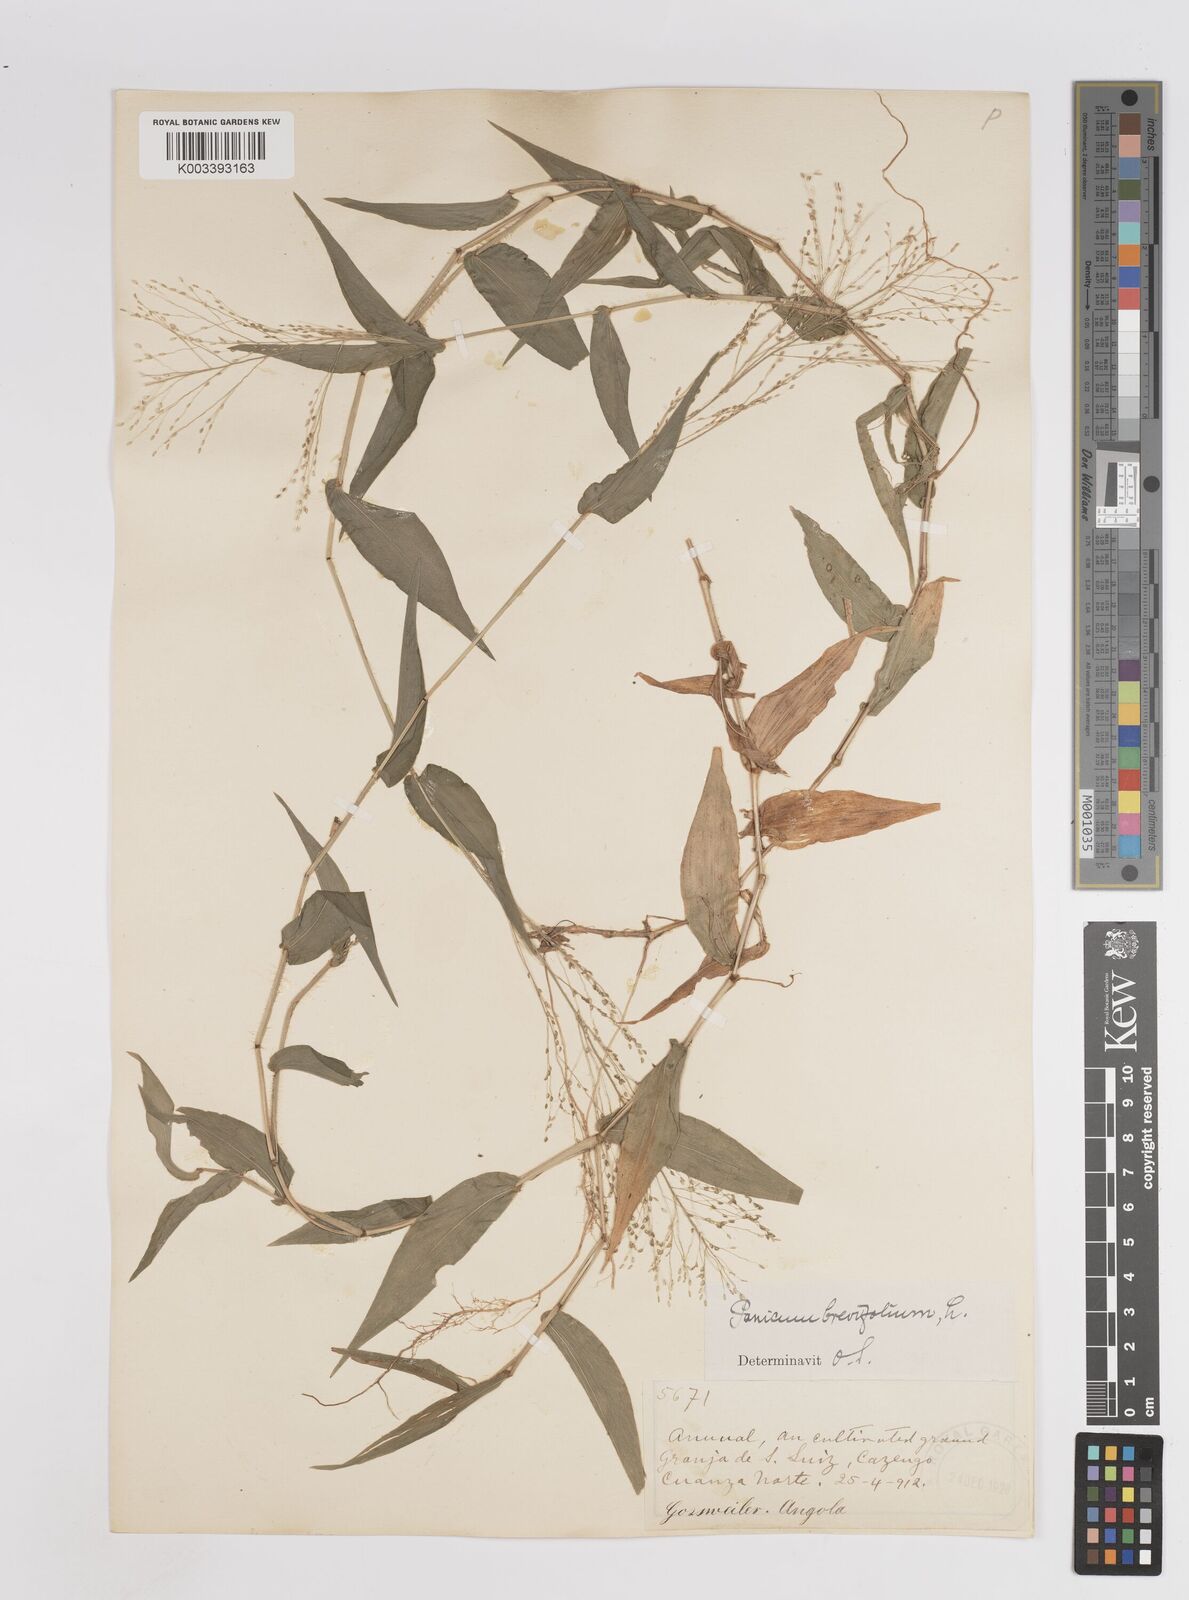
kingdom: Plantae
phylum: Tracheophyta
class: Liliopsida
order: Poales
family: Poaceae
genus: Panicum
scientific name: Panicum brevifolium
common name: Shortleaf panic grass
